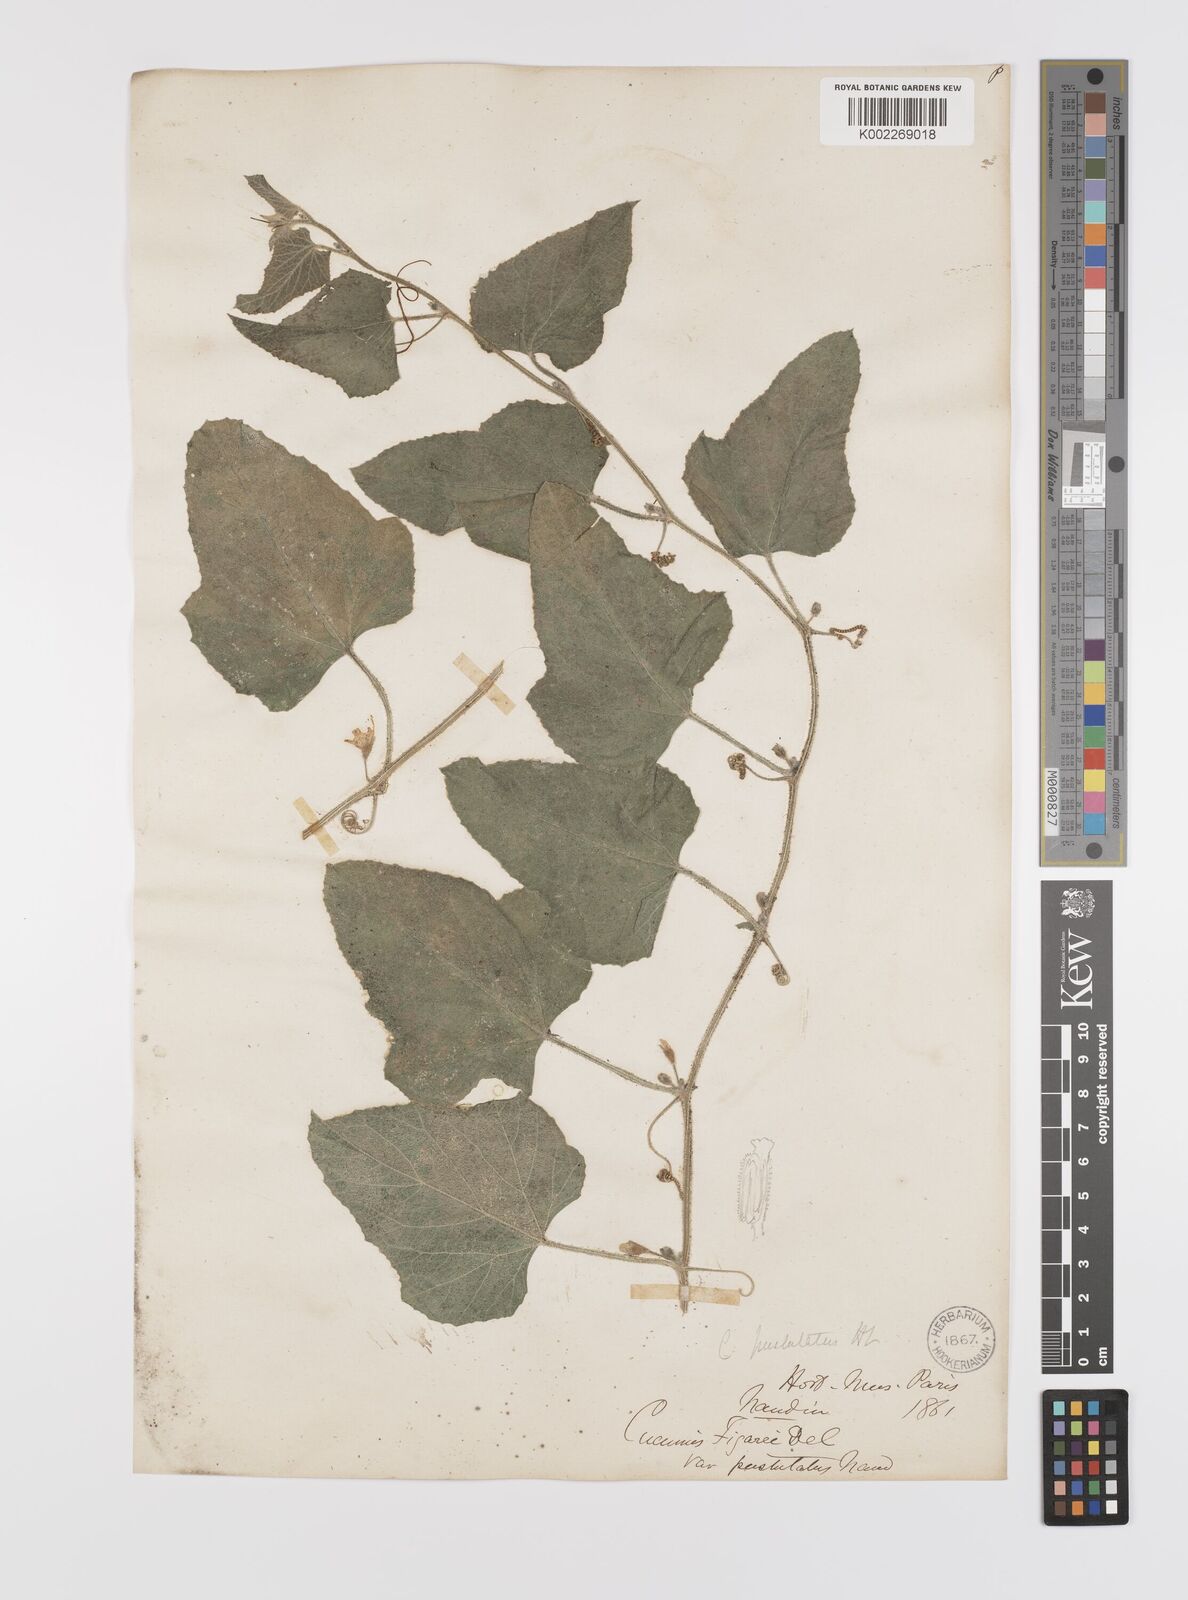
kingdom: Plantae
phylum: Tracheophyta
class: Magnoliopsida
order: Cucurbitales
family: Cucurbitaceae
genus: Cucumis
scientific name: Cucumis pustulatus
